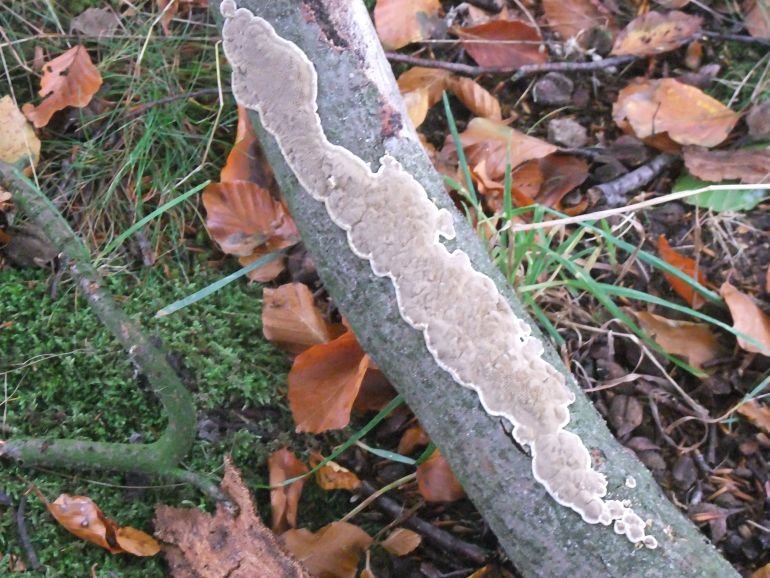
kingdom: Fungi
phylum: Basidiomycota
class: Agaricomycetes
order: Hymenochaetales
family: Hymenochaetaceae
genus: Mensularia
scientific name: Mensularia nodulosa
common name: bøge-spejlporesvamp
